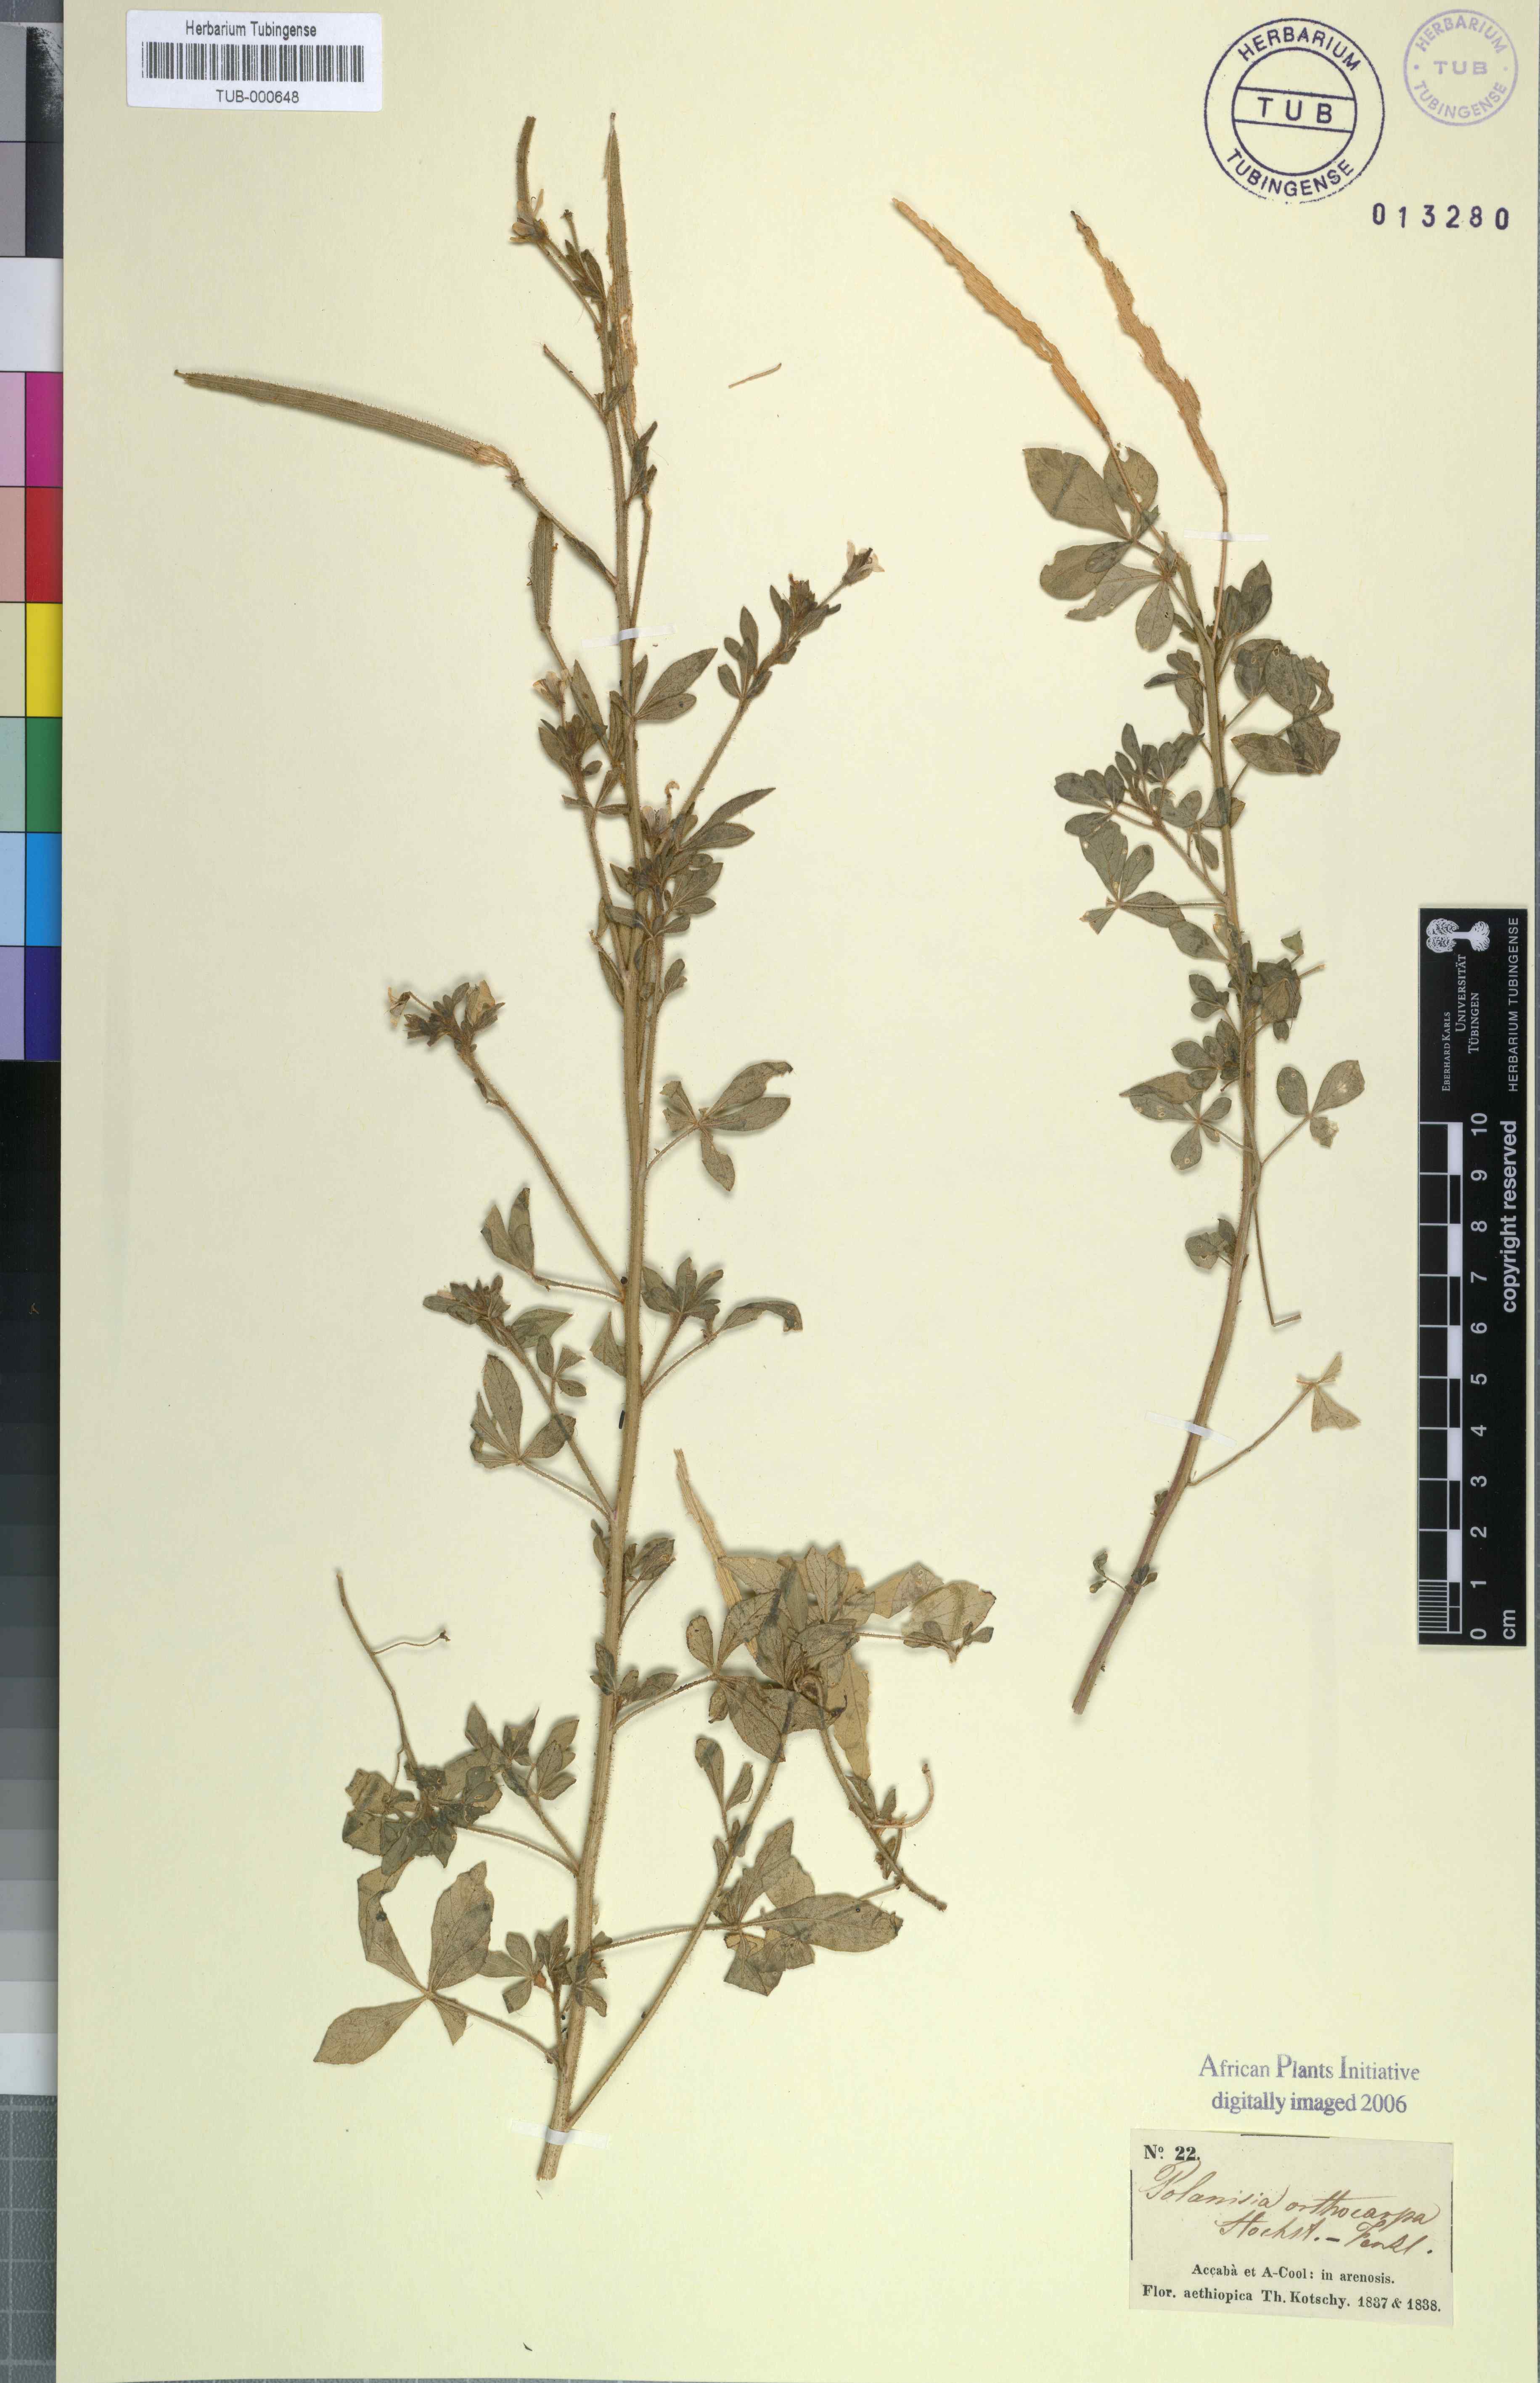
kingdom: Plantae
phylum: Tracheophyta
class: Magnoliopsida
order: Brassicales
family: Cleomaceae
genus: Arivela
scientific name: Arivela viscosa
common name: Asian spiderflower
